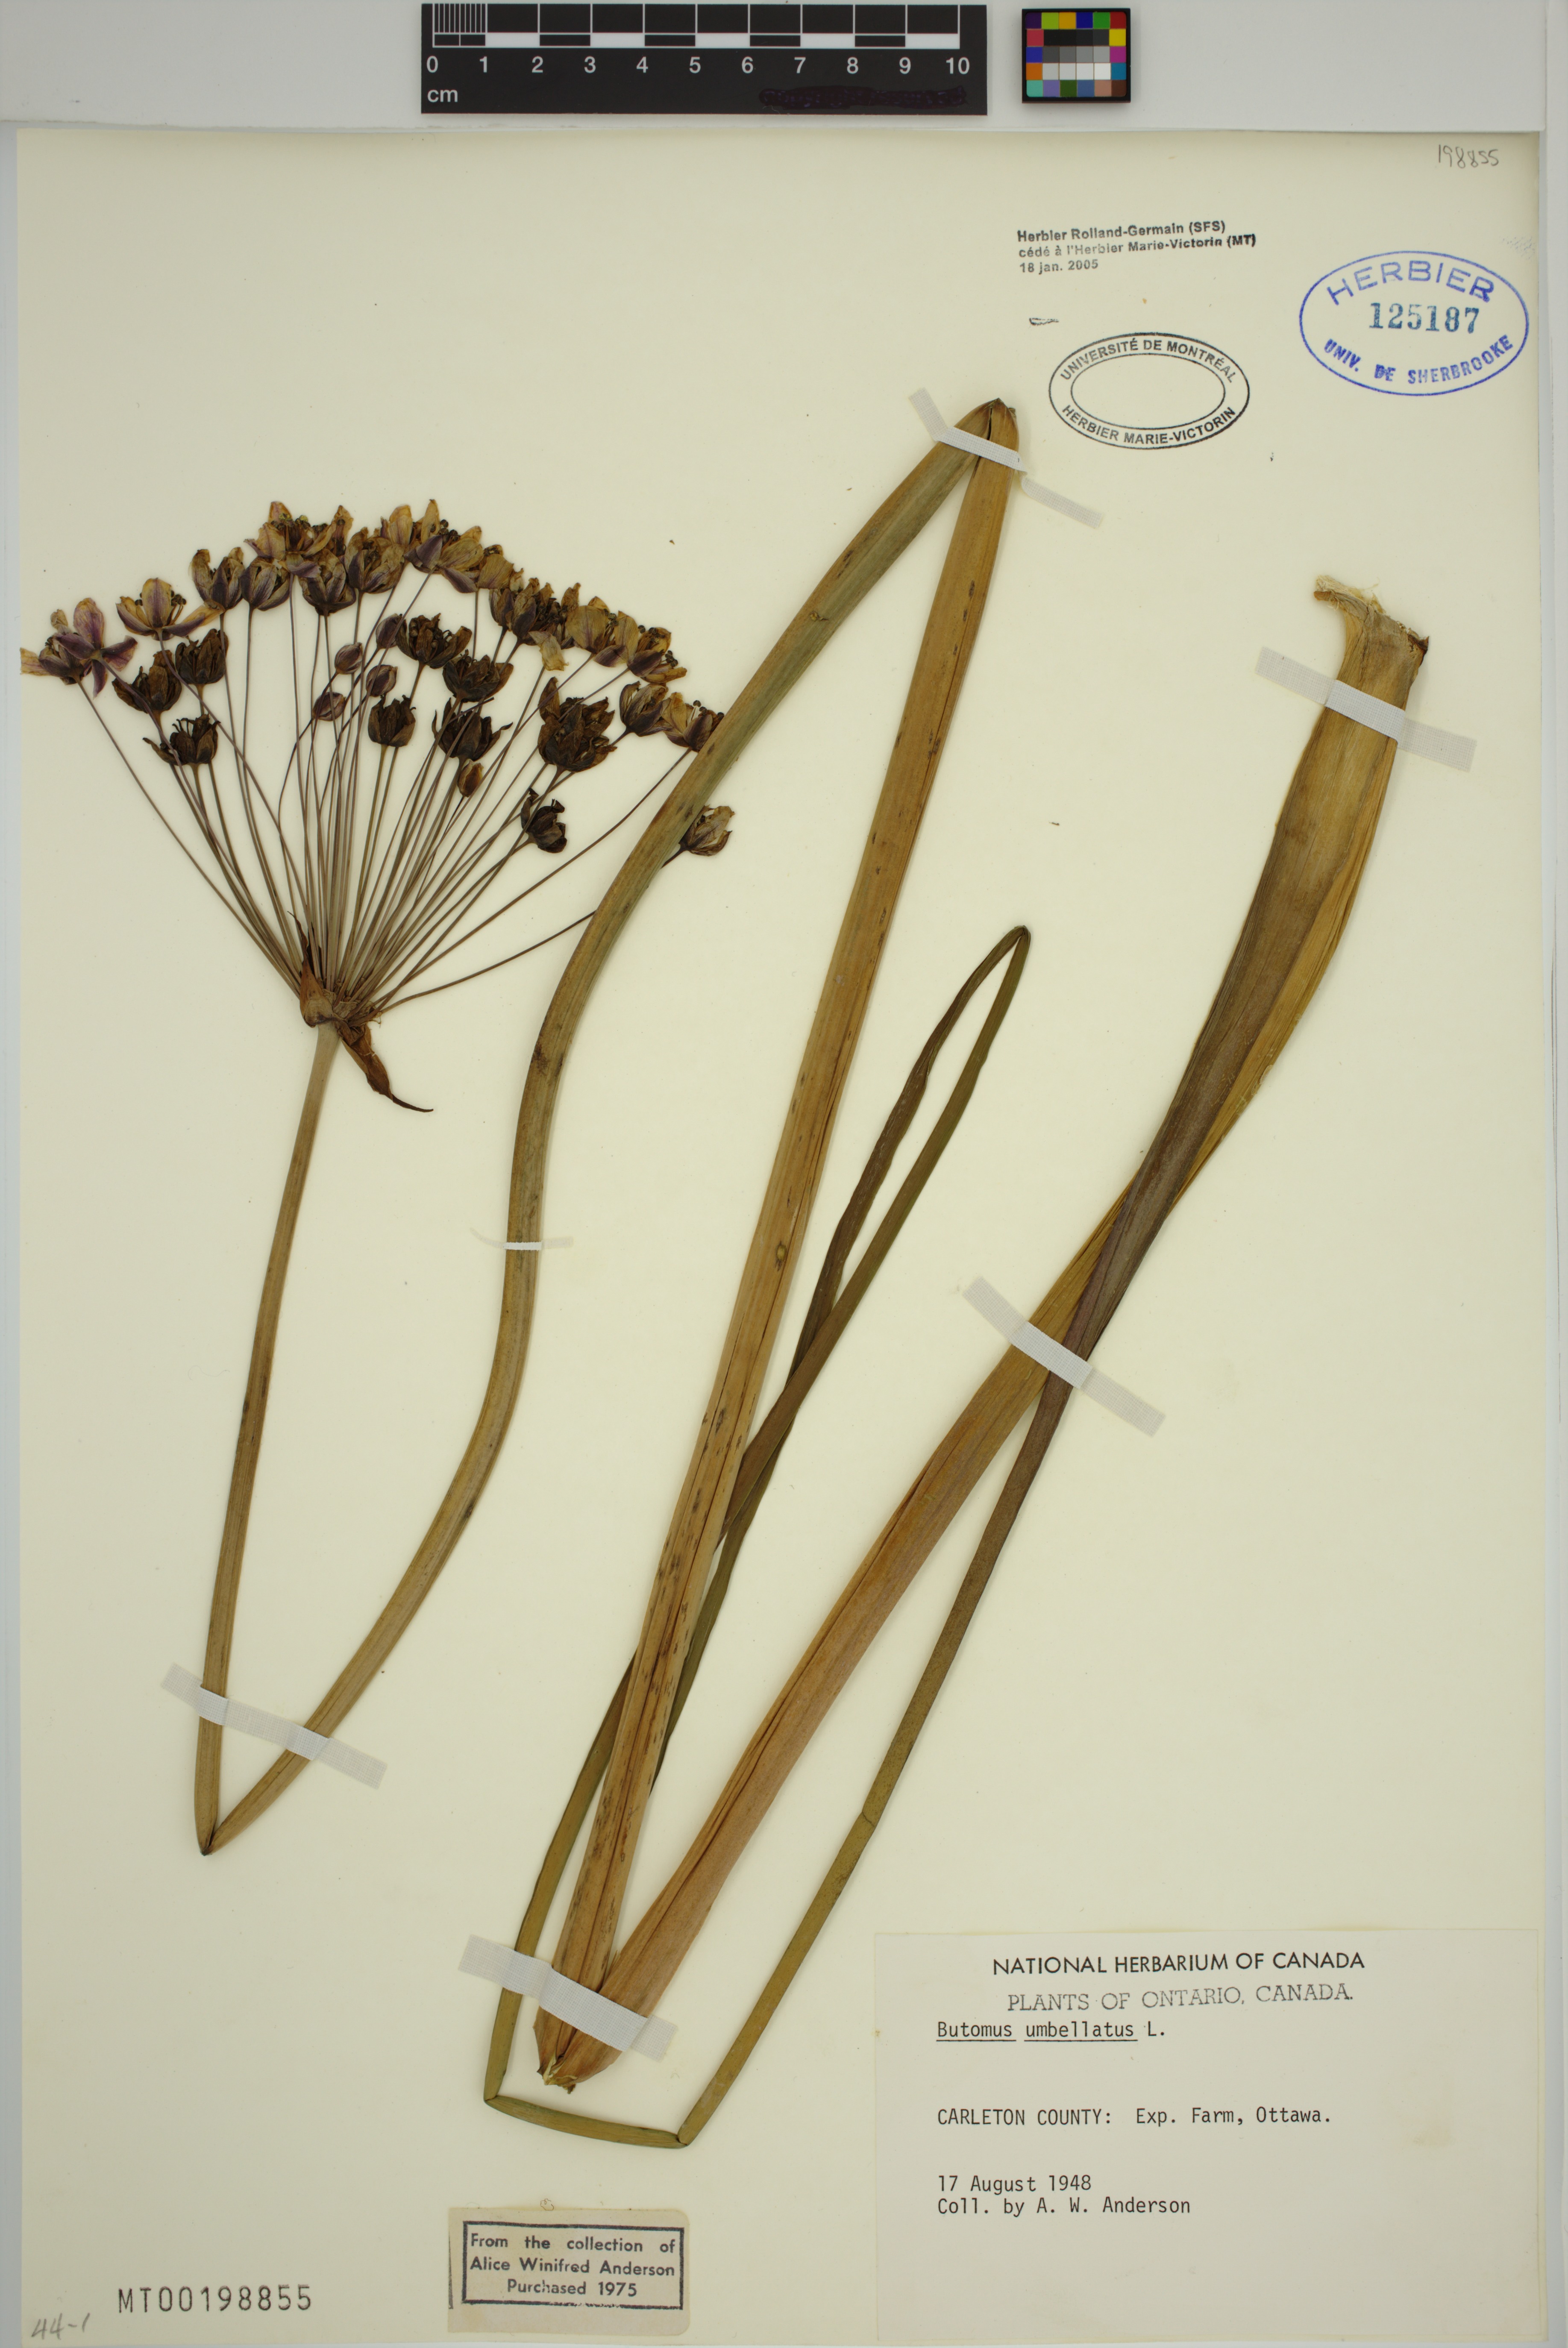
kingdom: Plantae
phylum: Tracheophyta
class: Liliopsida
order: Alismatales
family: Butomaceae
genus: Butomus
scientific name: Butomus umbellatus
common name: Flowering-rush
